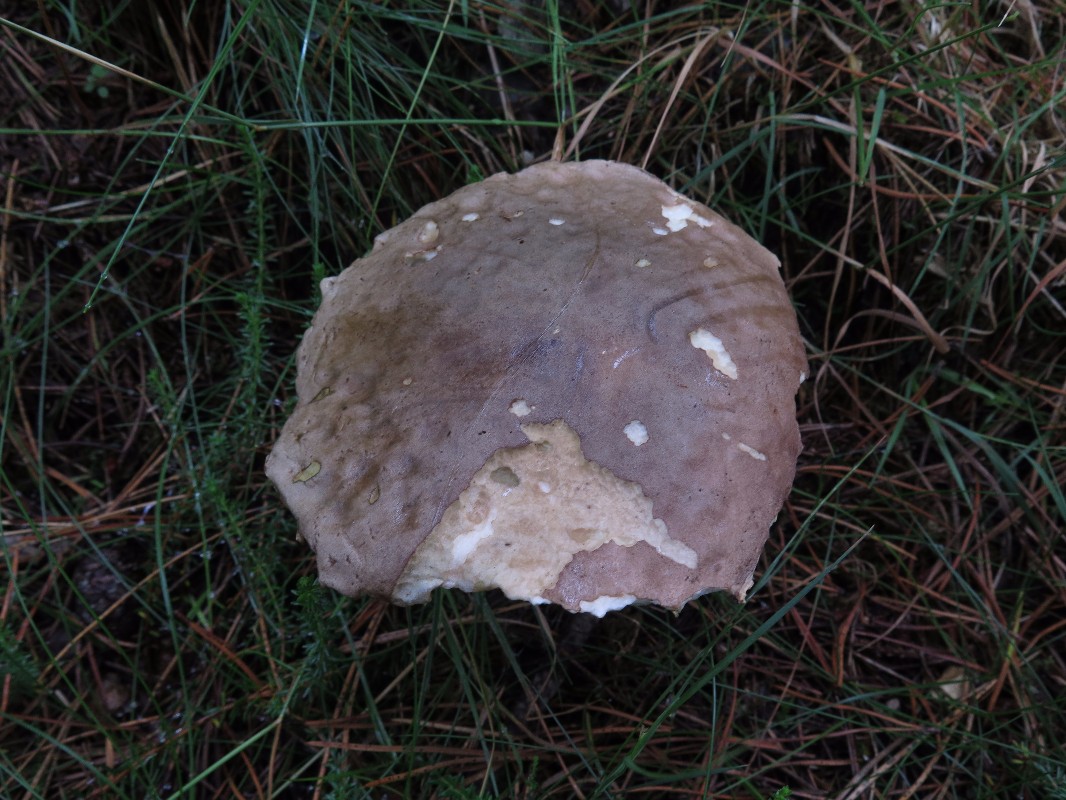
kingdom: Fungi
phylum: Basidiomycota
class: Agaricomycetes
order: Boletales
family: Boletaceae
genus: Leccinum
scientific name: Leccinum
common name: skælrørhat
